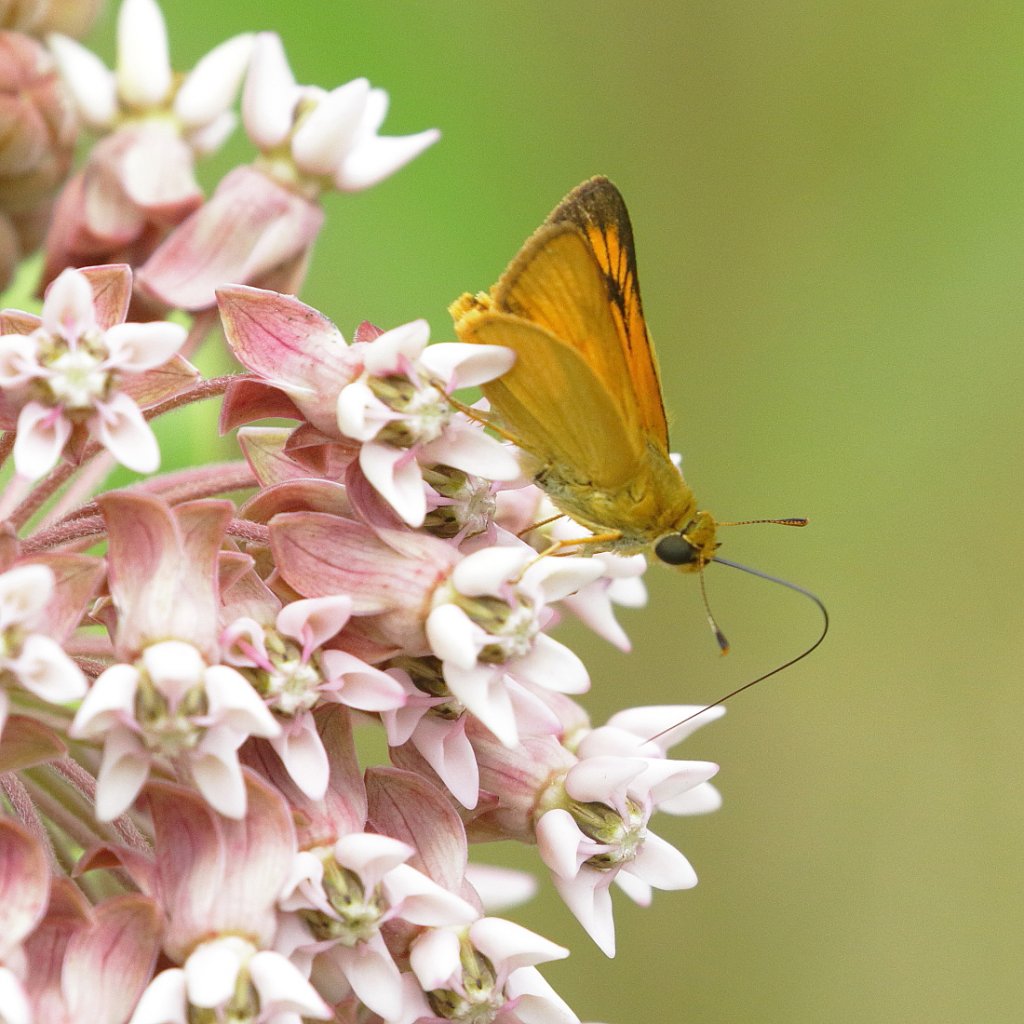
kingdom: Animalia
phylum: Arthropoda
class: Insecta
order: Lepidoptera
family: Hesperiidae
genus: Atrytone
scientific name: Atrytone delaware
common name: Delaware Skipper
